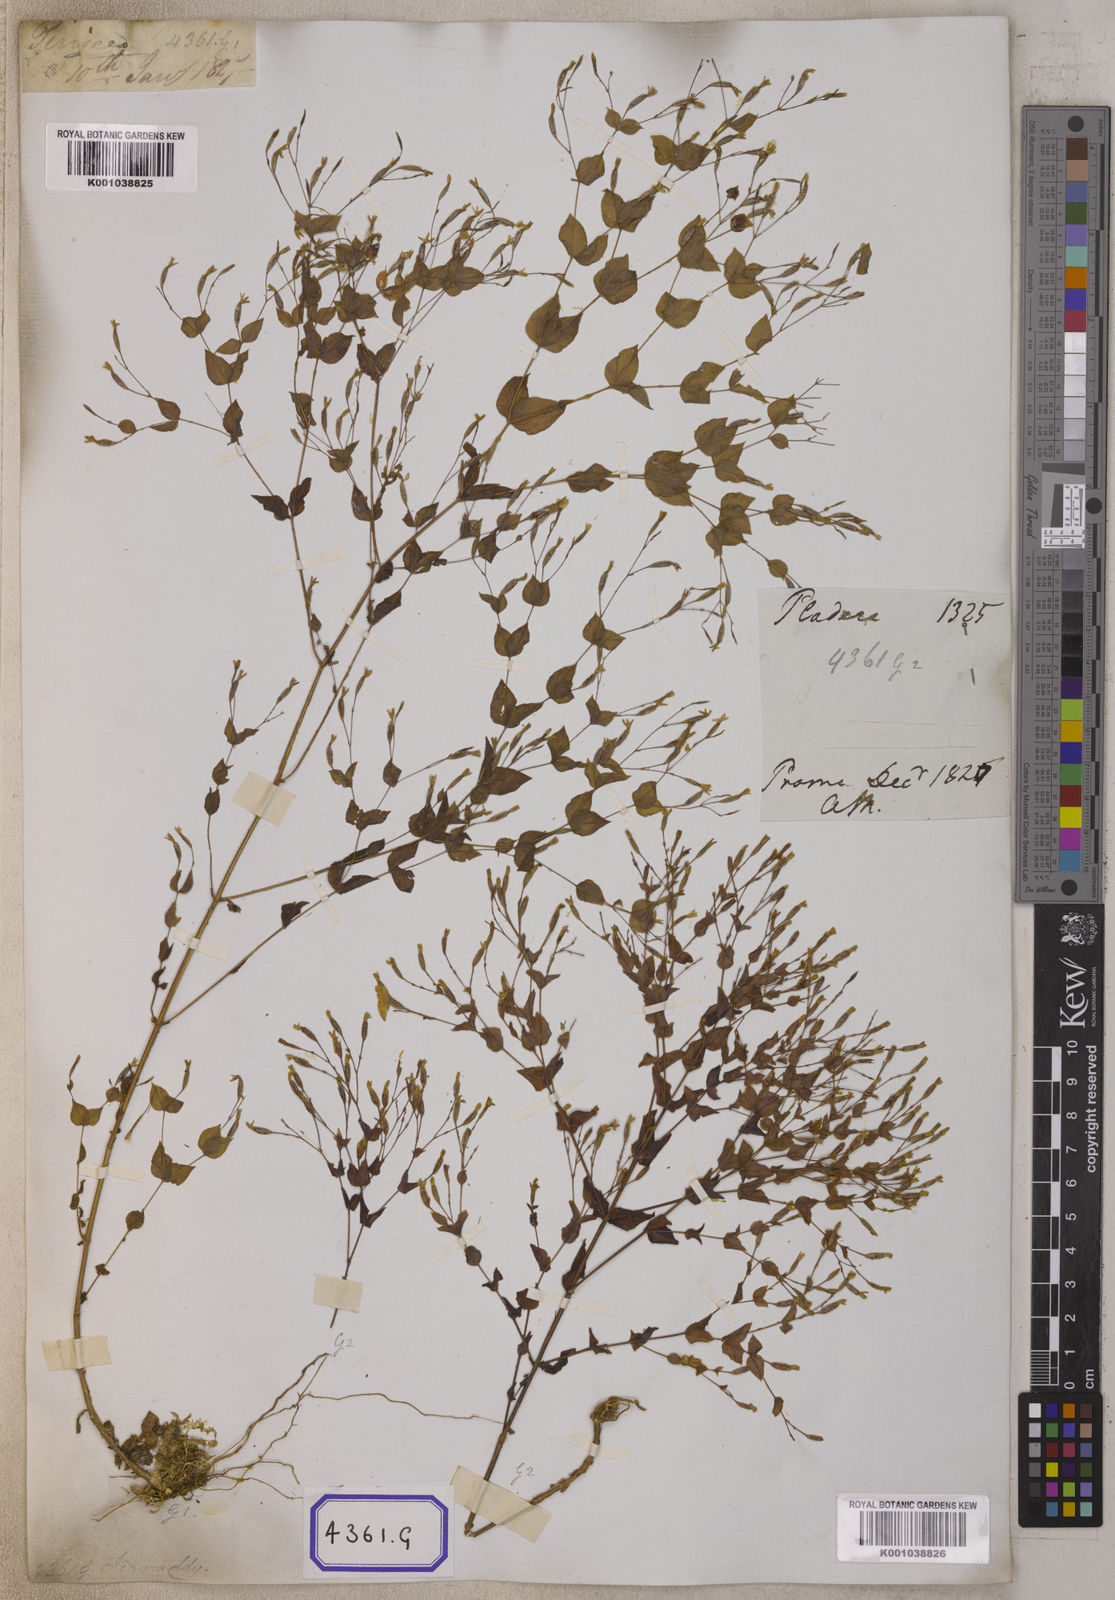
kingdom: Plantae
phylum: Tracheophyta
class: Magnoliopsida
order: Gentianales
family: Gentianaceae
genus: Canscora
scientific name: Canscora
